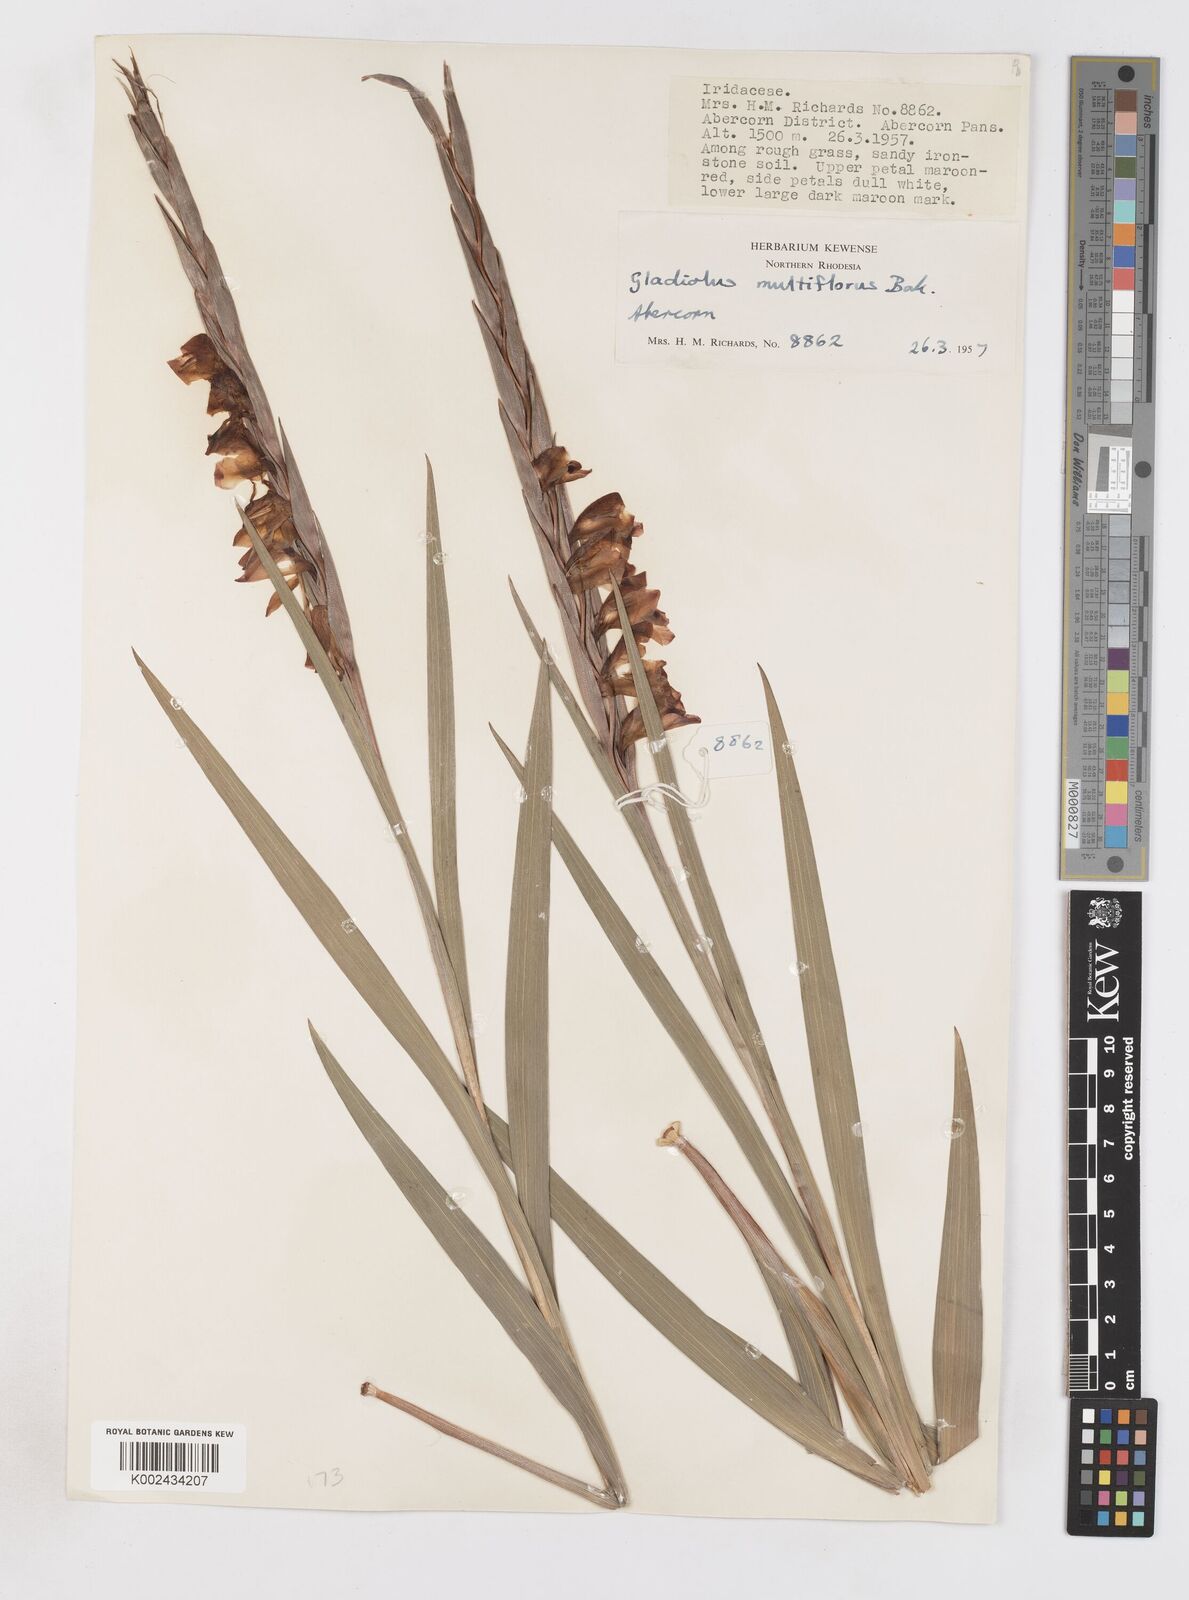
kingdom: Plantae
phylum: Tracheophyta
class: Liliopsida
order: Asparagales
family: Iridaceae
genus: Gladiolus
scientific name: Gladiolus gregarius
